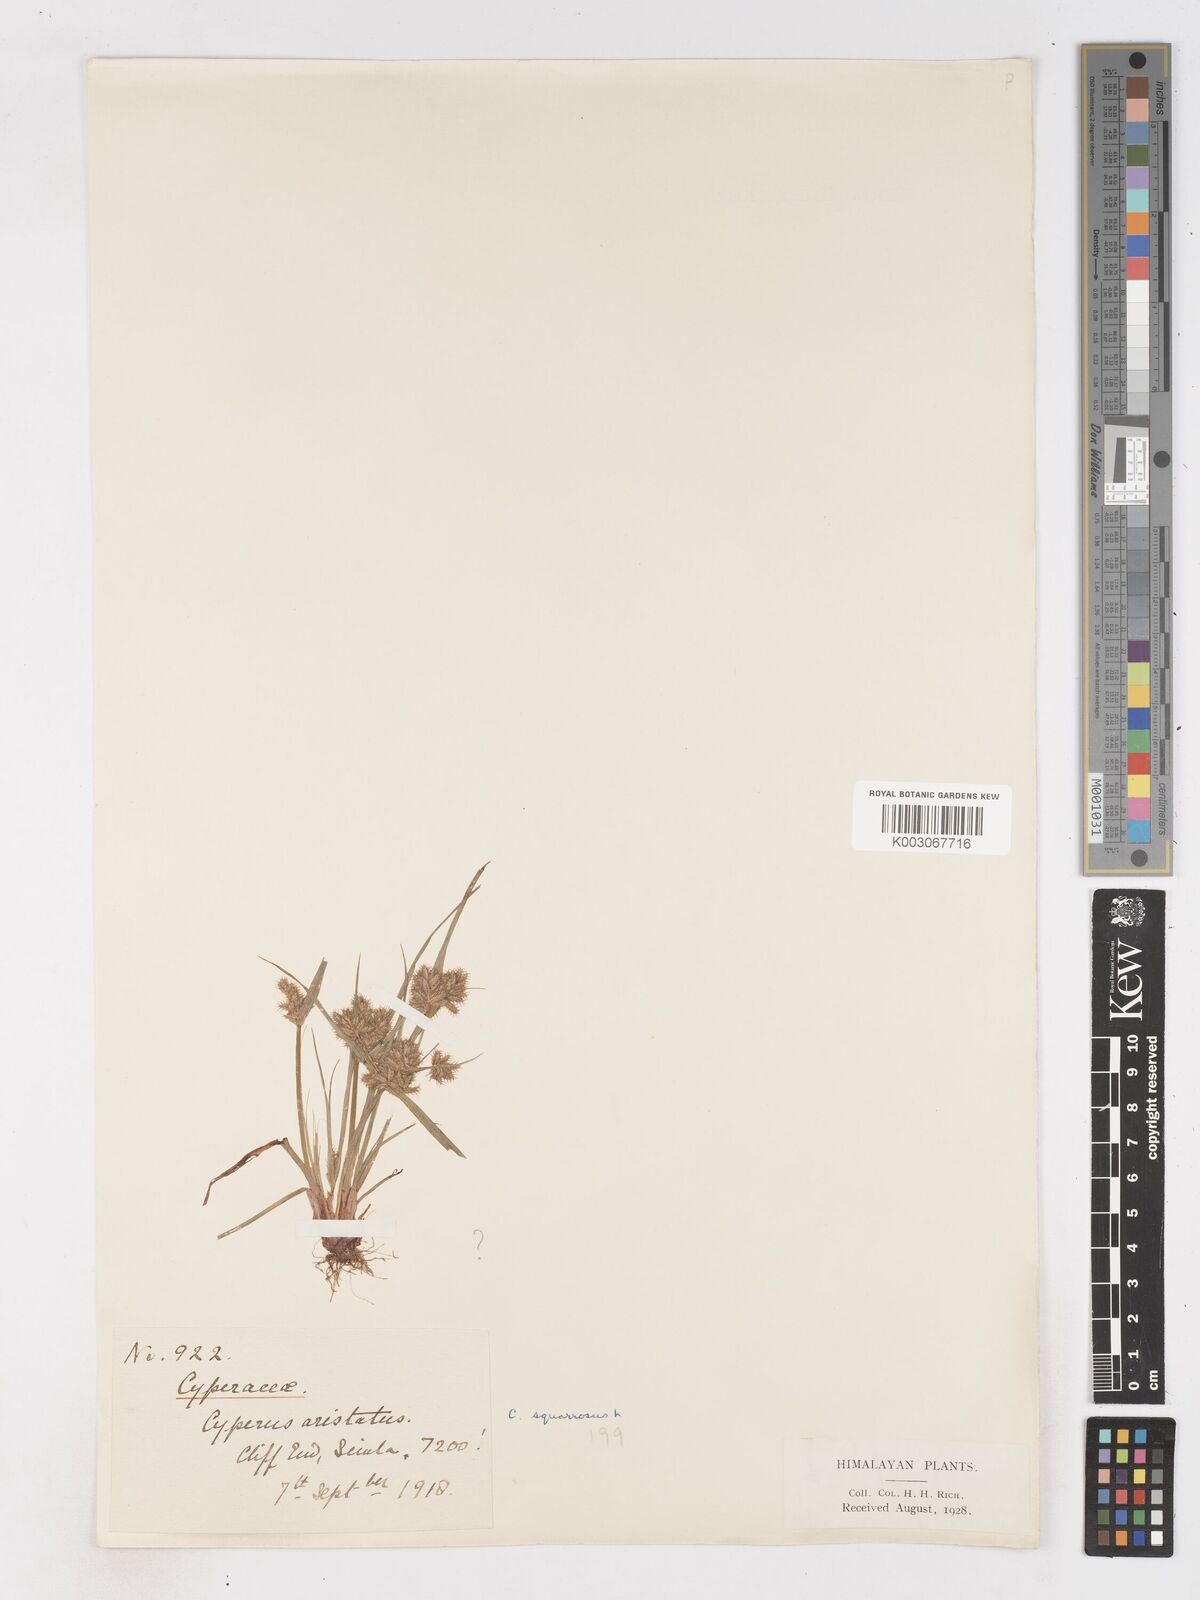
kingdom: Plantae
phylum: Tracheophyta
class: Liliopsida
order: Poales
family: Cyperaceae
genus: Cyperus
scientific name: Cyperus squarrosus
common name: Awned cyperus
